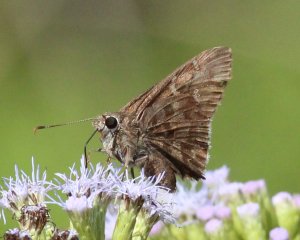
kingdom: Animalia
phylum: Arthropoda
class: Insecta
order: Lepidoptera
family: Hesperiidae
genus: Cogia
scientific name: Cogia hippalus
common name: Acacia Skipper
